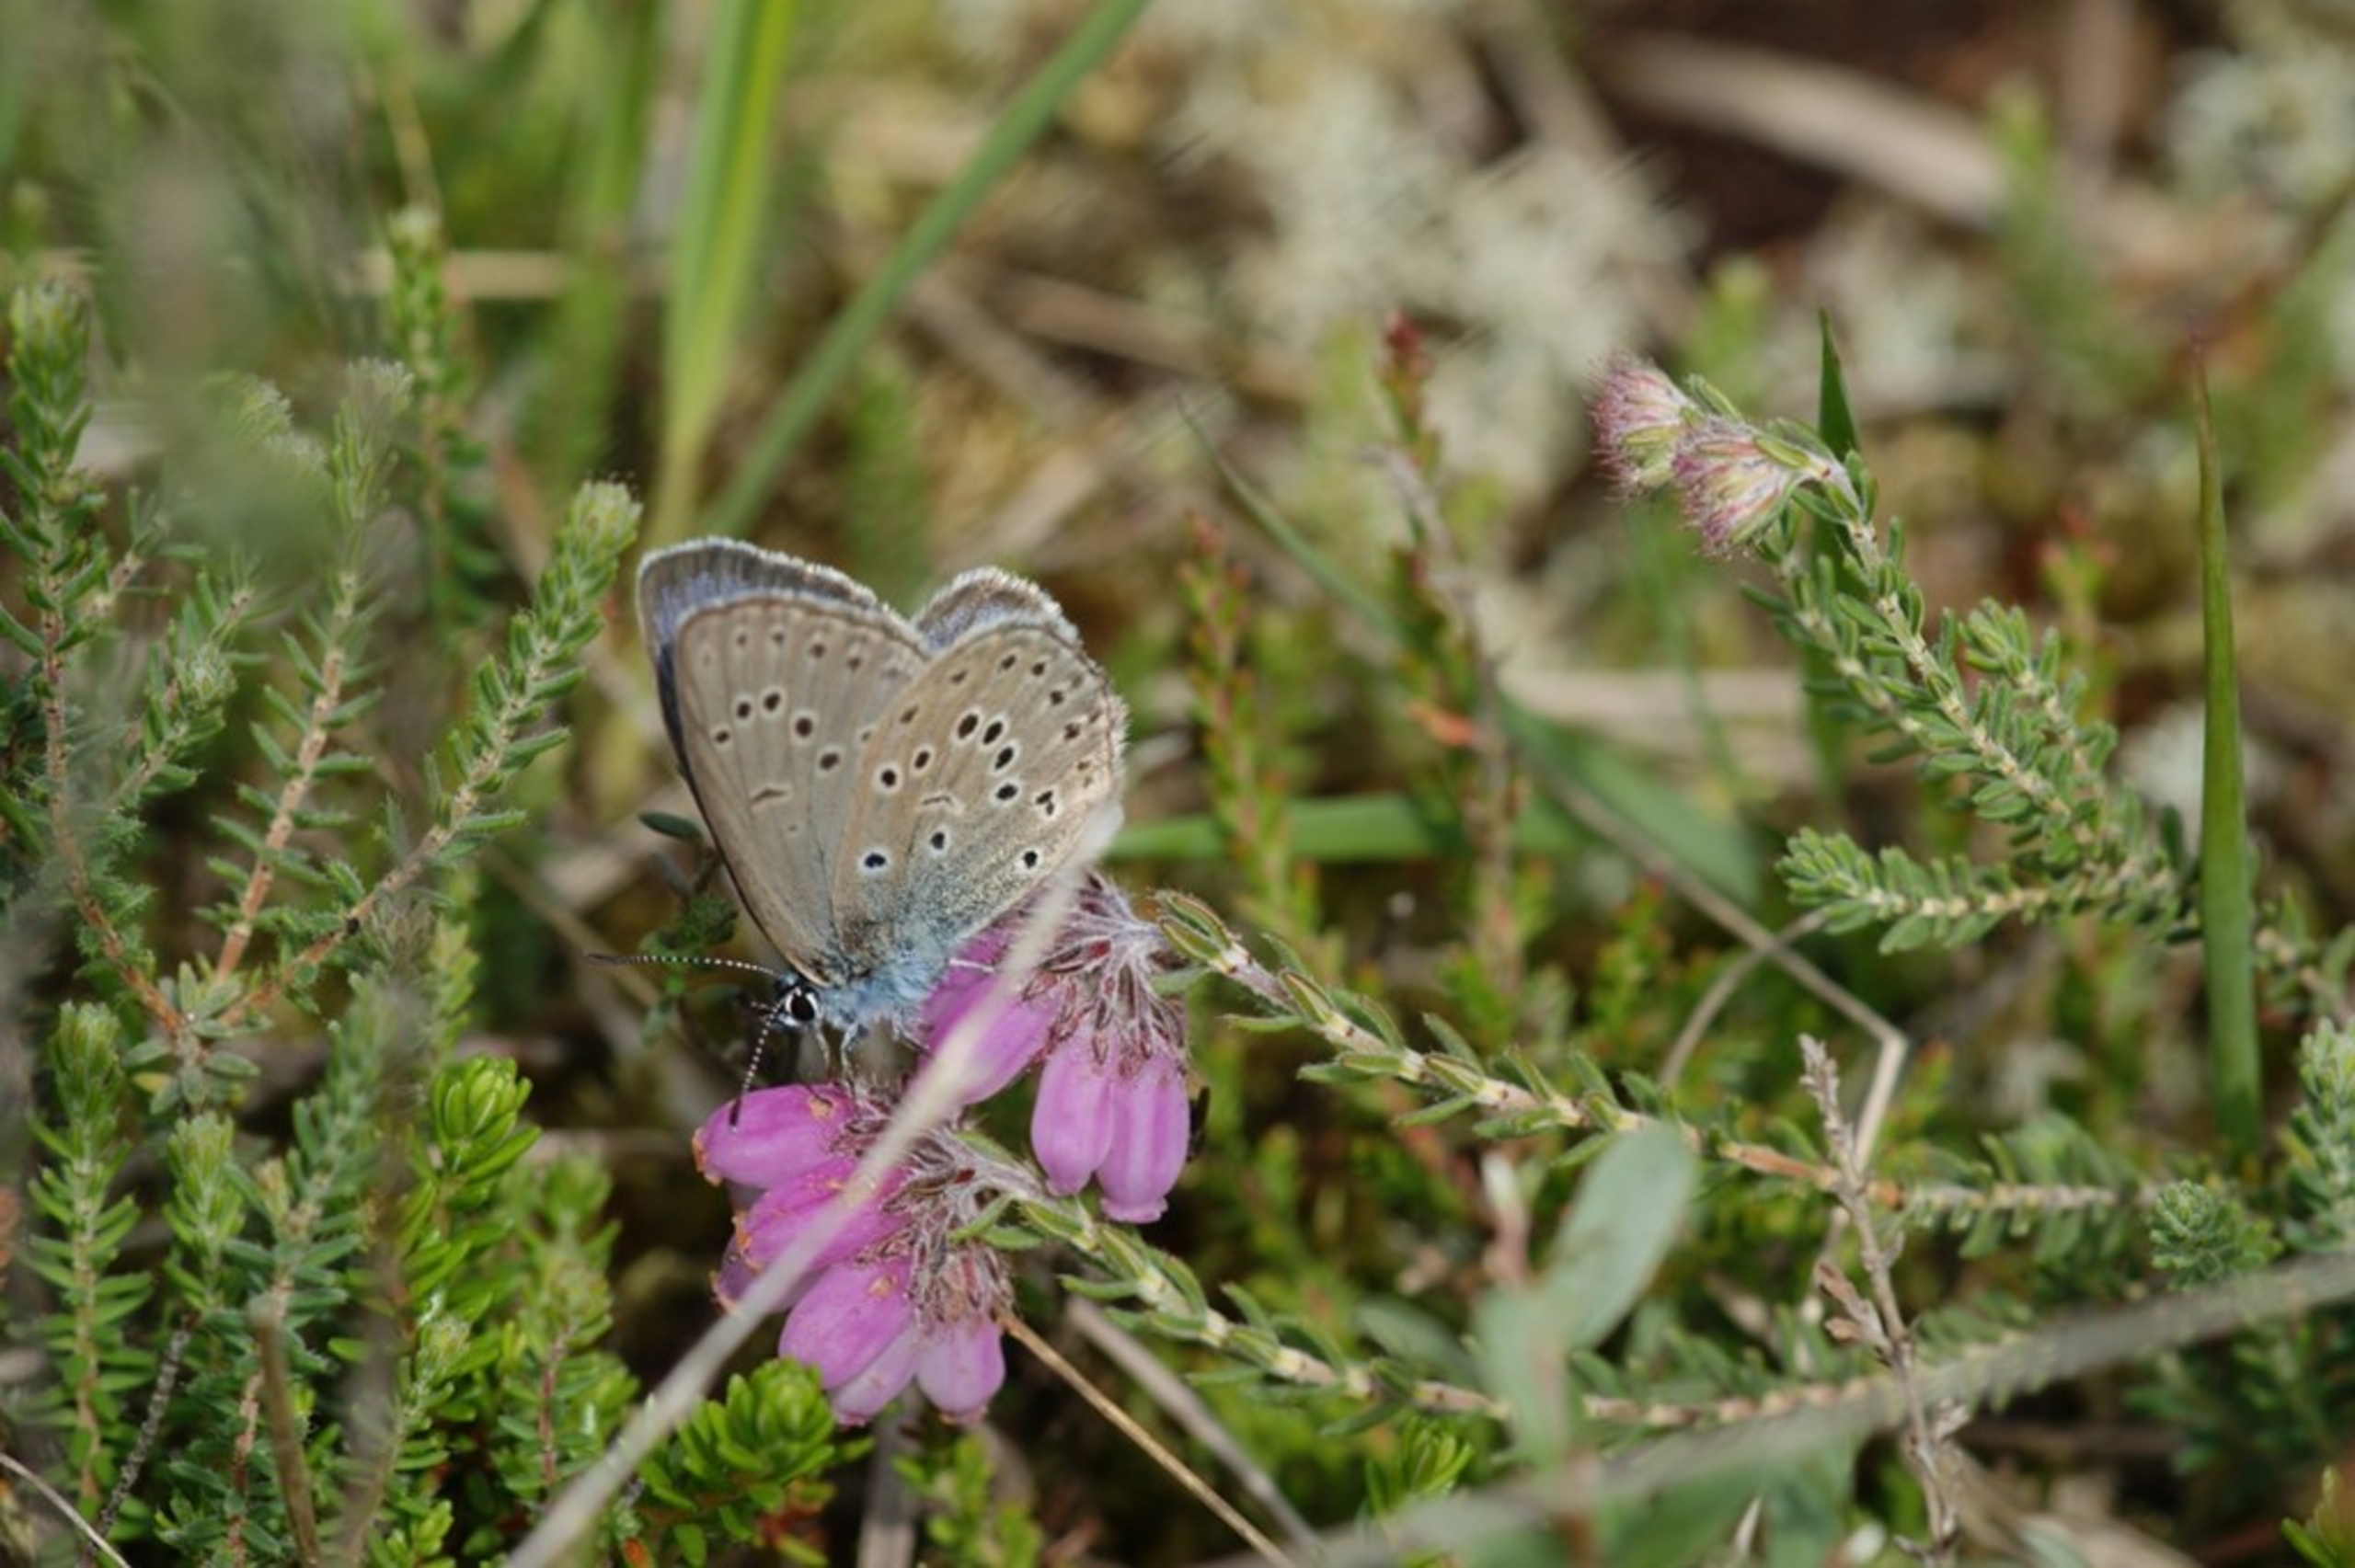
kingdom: Animalia
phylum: Arthropoda
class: Insecta
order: Lepidoptera
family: Lycaenidae
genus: Maculinea
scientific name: Maculinea alcon
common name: Ensianblåfugl
